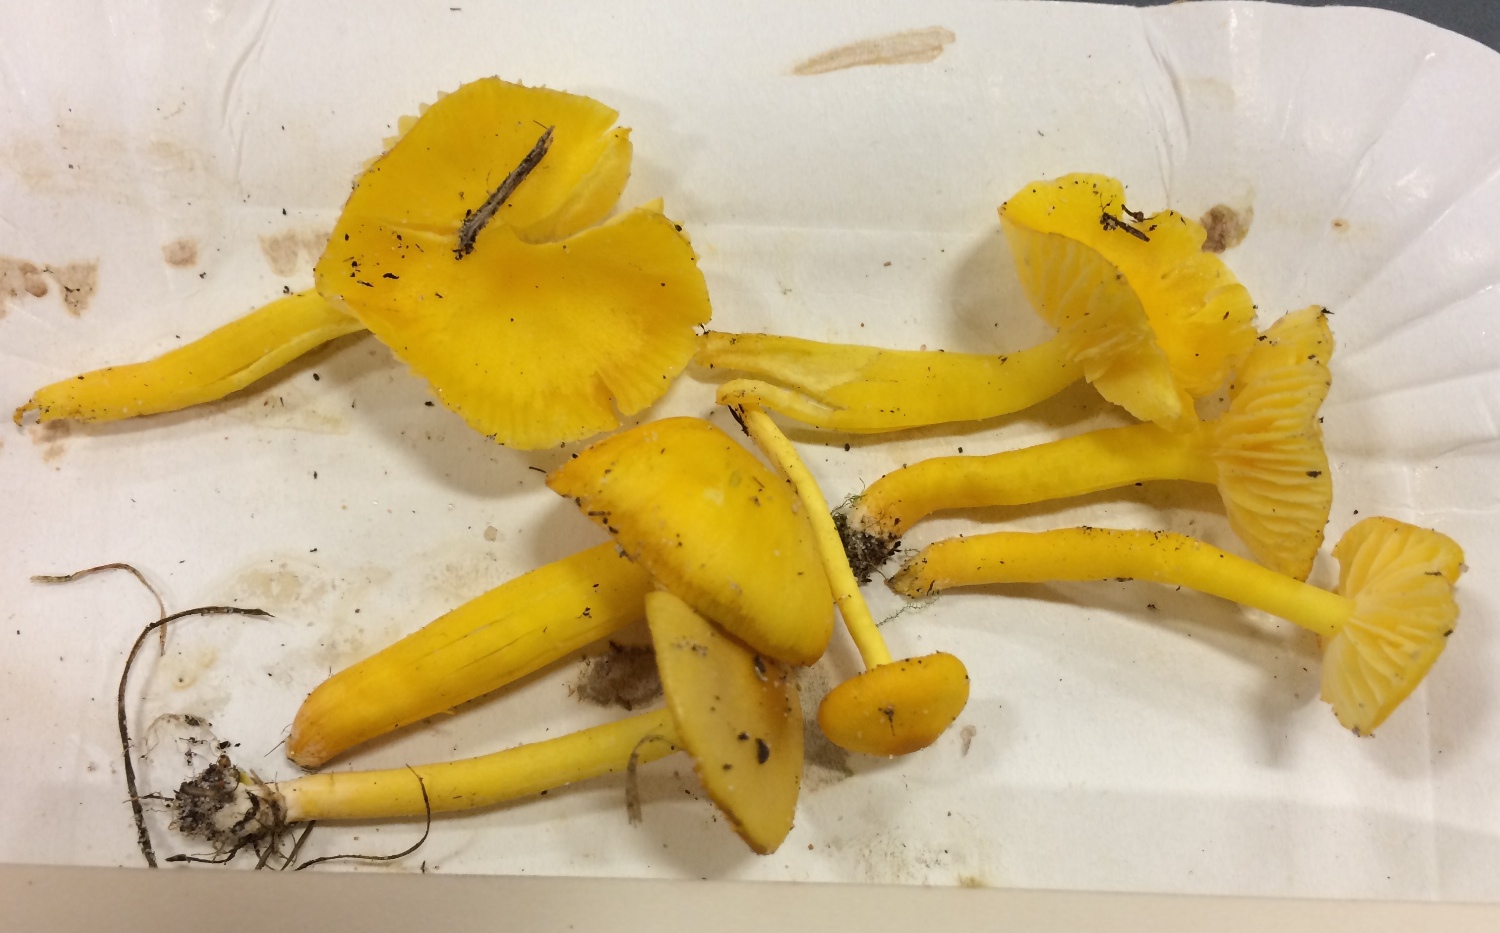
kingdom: Fungi
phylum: Basidiomycota
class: Agaricomycetes
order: Agaricales
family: Hygrophoraceae
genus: Hygrocybe
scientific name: Hygrocybe ceracea
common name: voksgul vokshat
